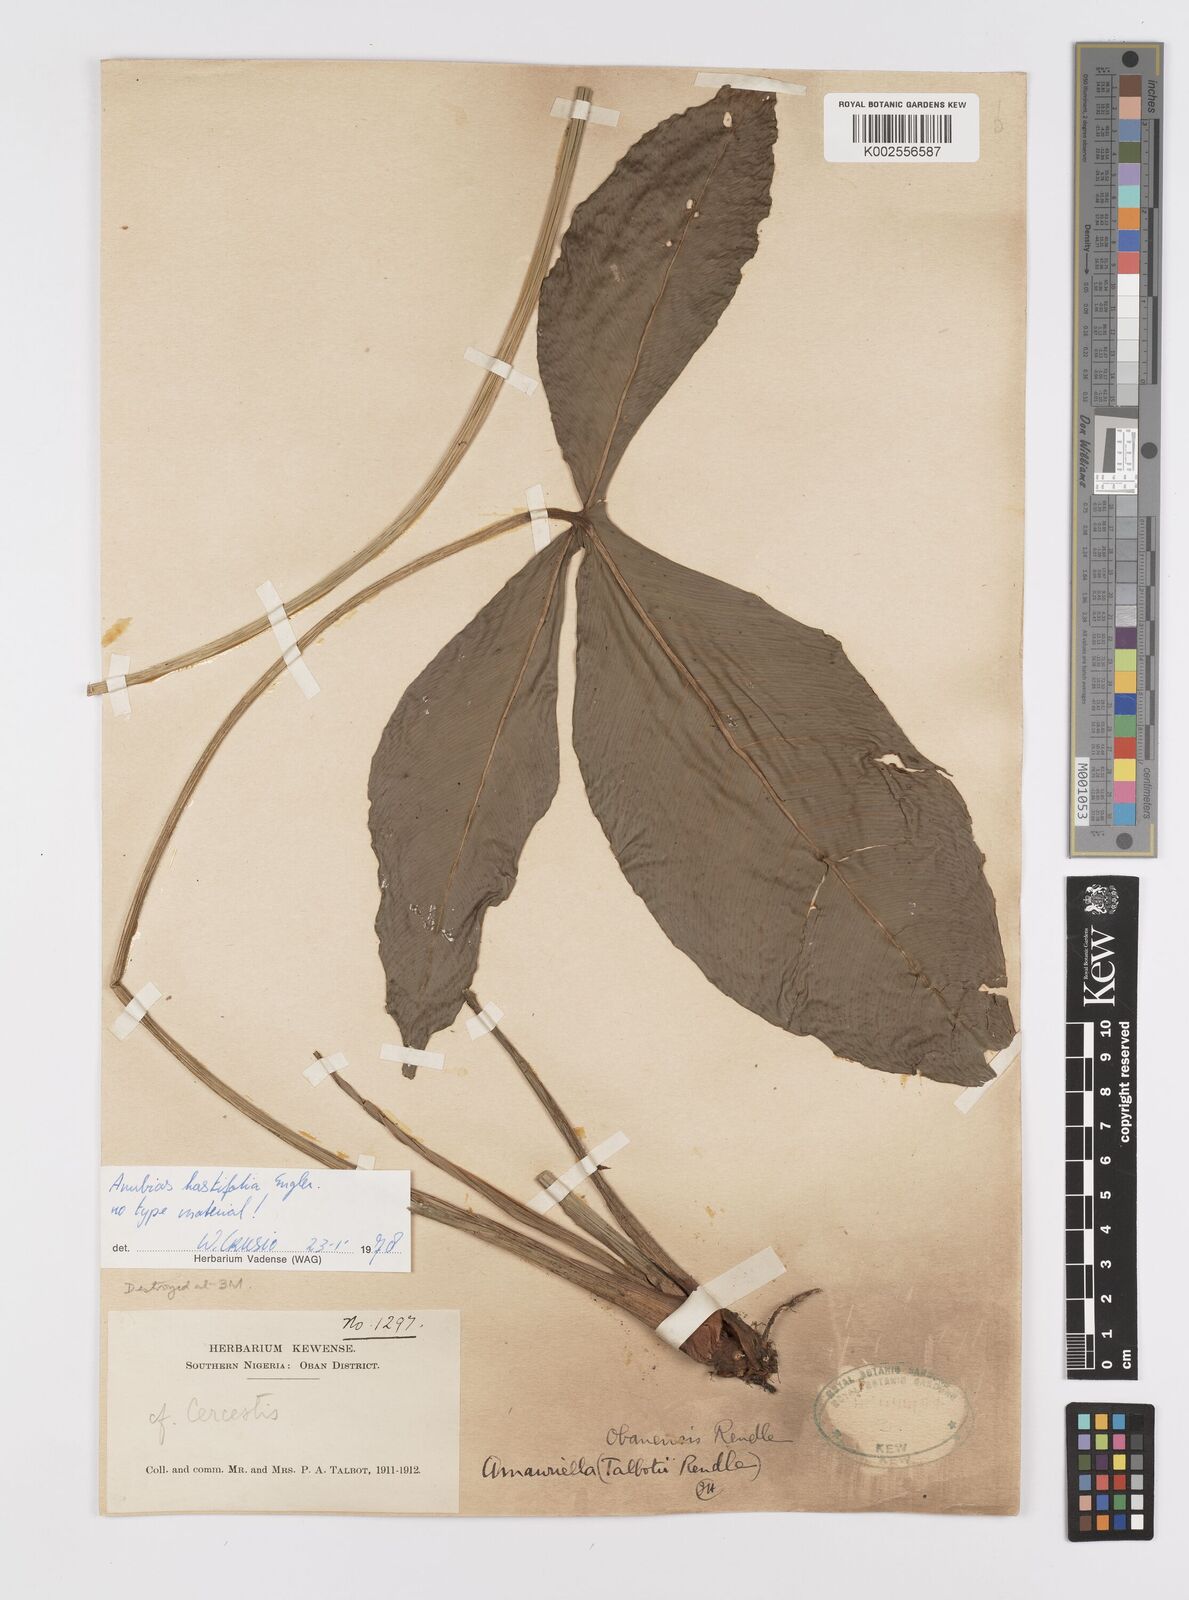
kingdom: Plantae
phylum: Tracheophyta
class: Liliopsida
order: Alismatales
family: Araceae
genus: Anubias
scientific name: Anubias hastifolia
